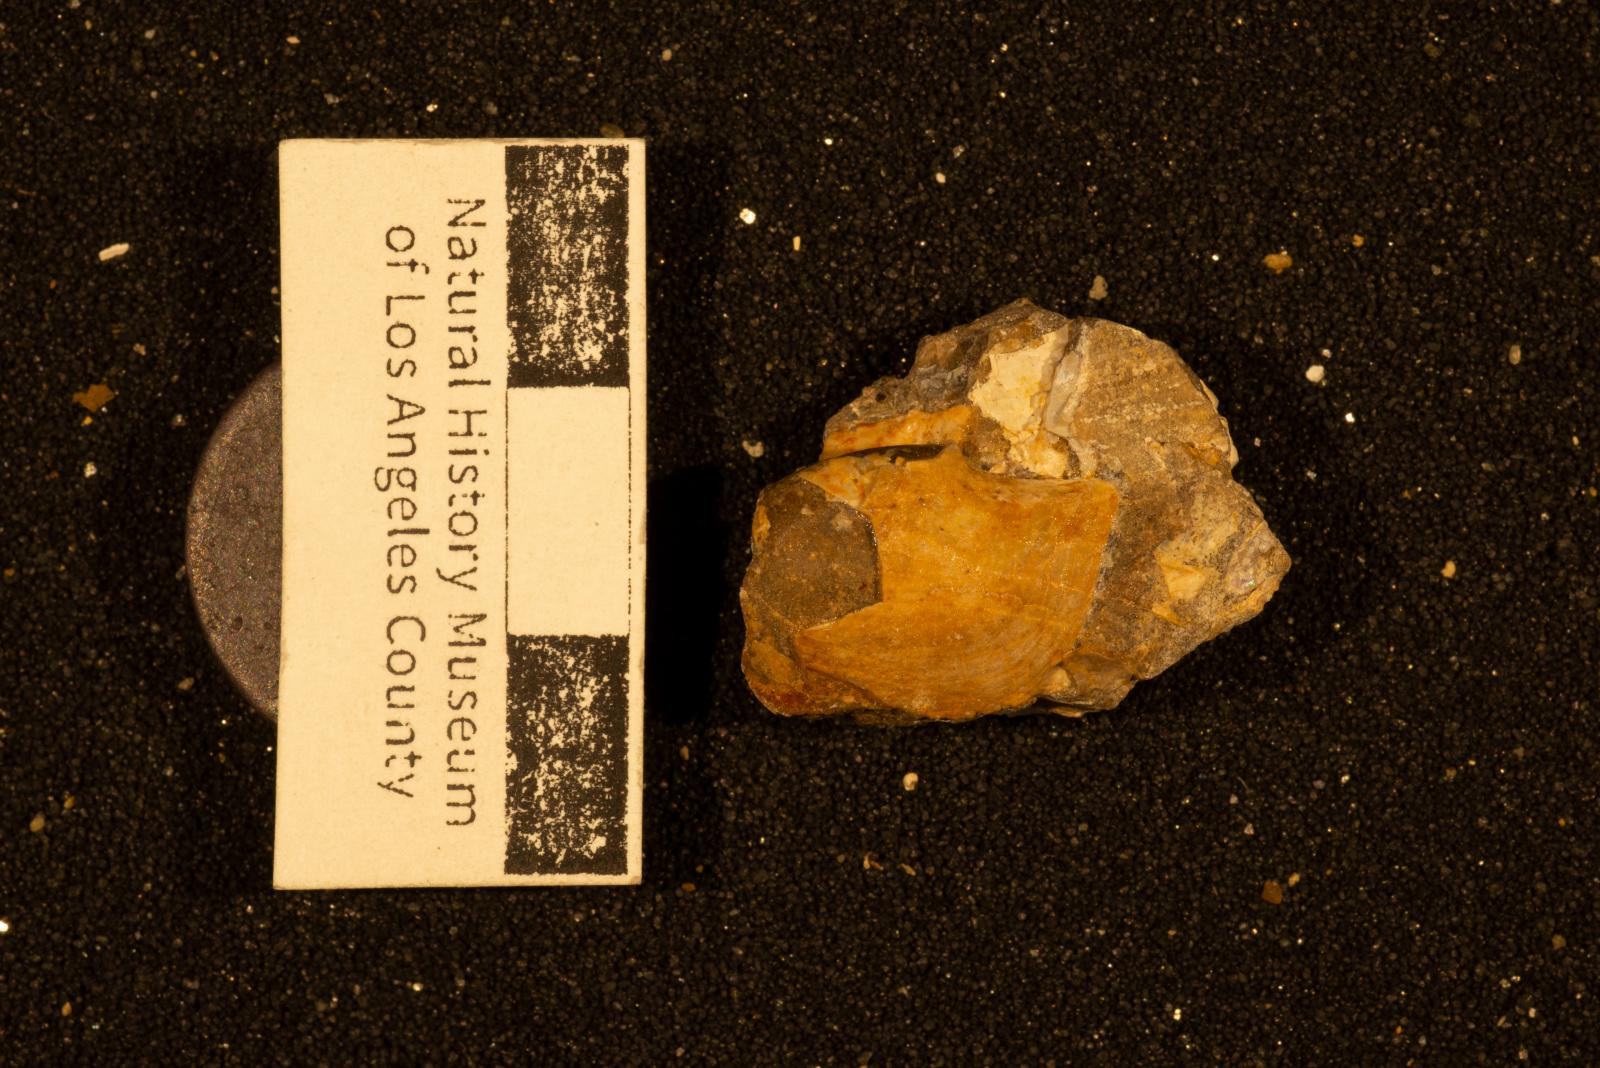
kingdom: Animalia
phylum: Mollusca
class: Bivalvia
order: Cardiida
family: Tancrediidae
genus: Meekia
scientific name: Meekia daileyi
